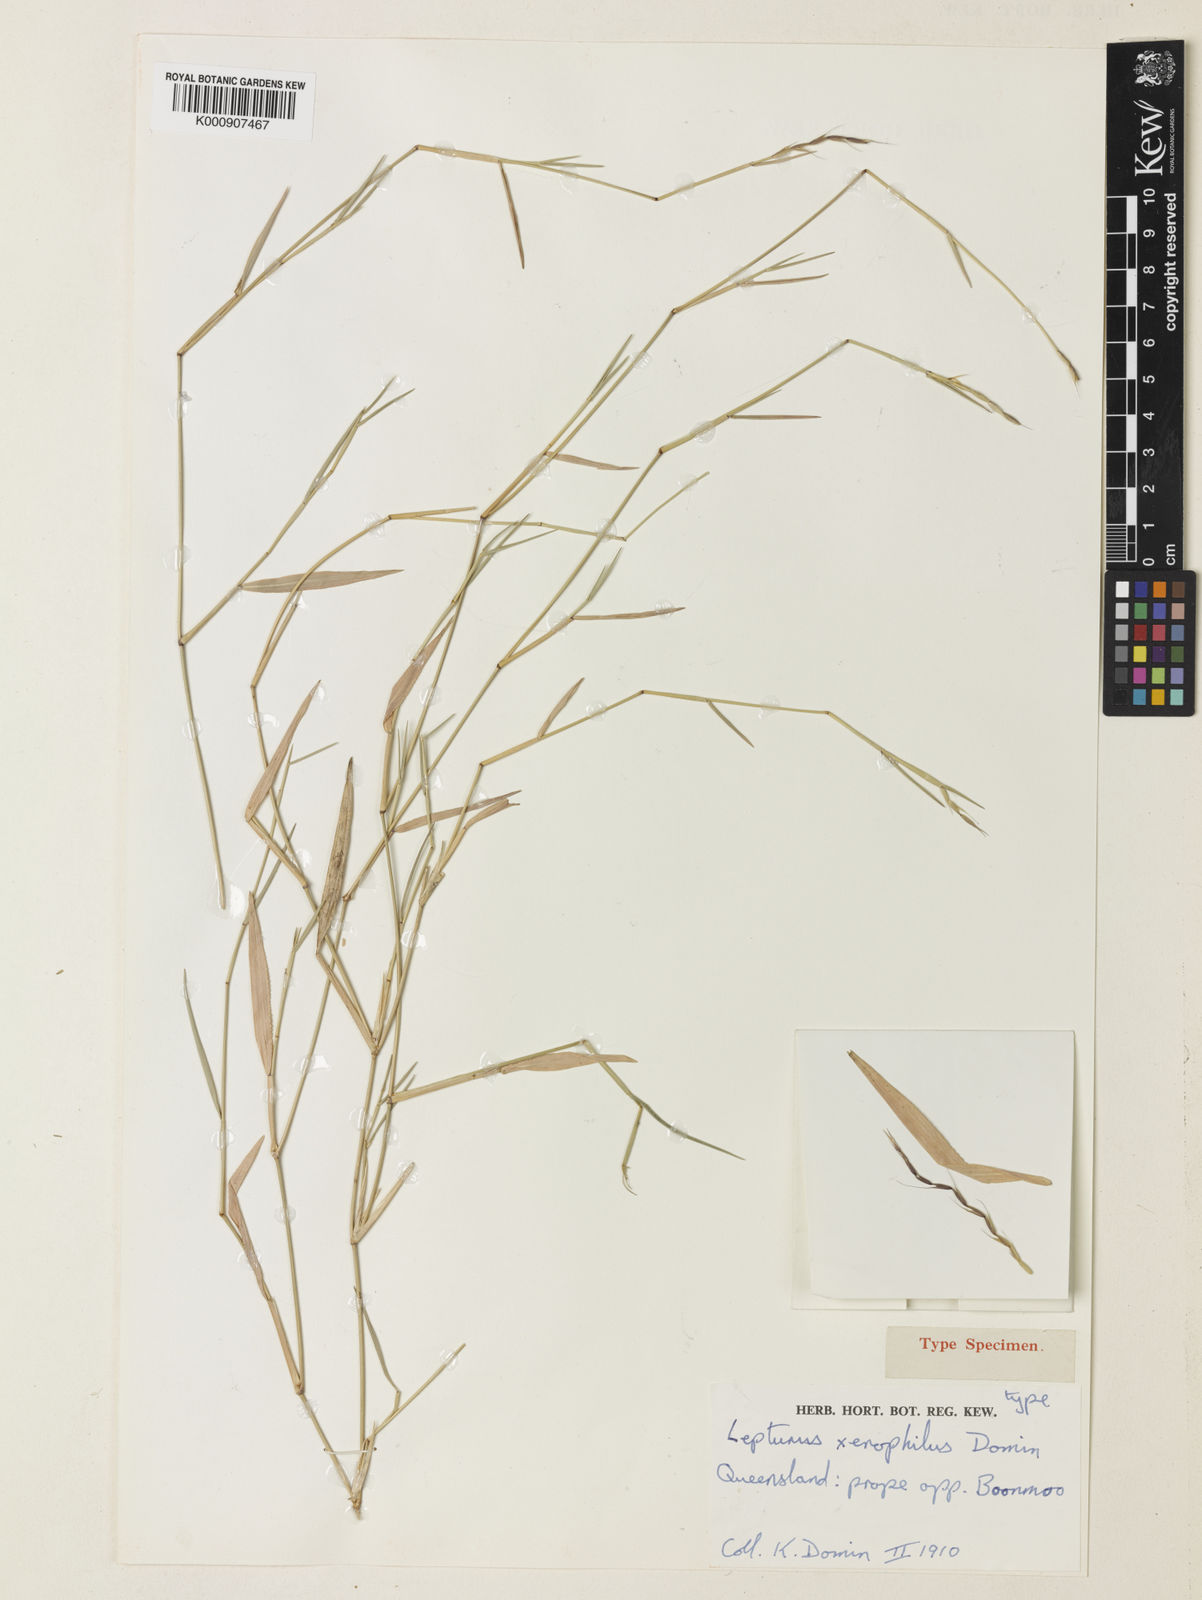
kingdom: Plantae
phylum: Tracheophyta
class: Liliopsida
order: Poales
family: Poaceae
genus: Lepturus
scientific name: Lepturus xerophilus
